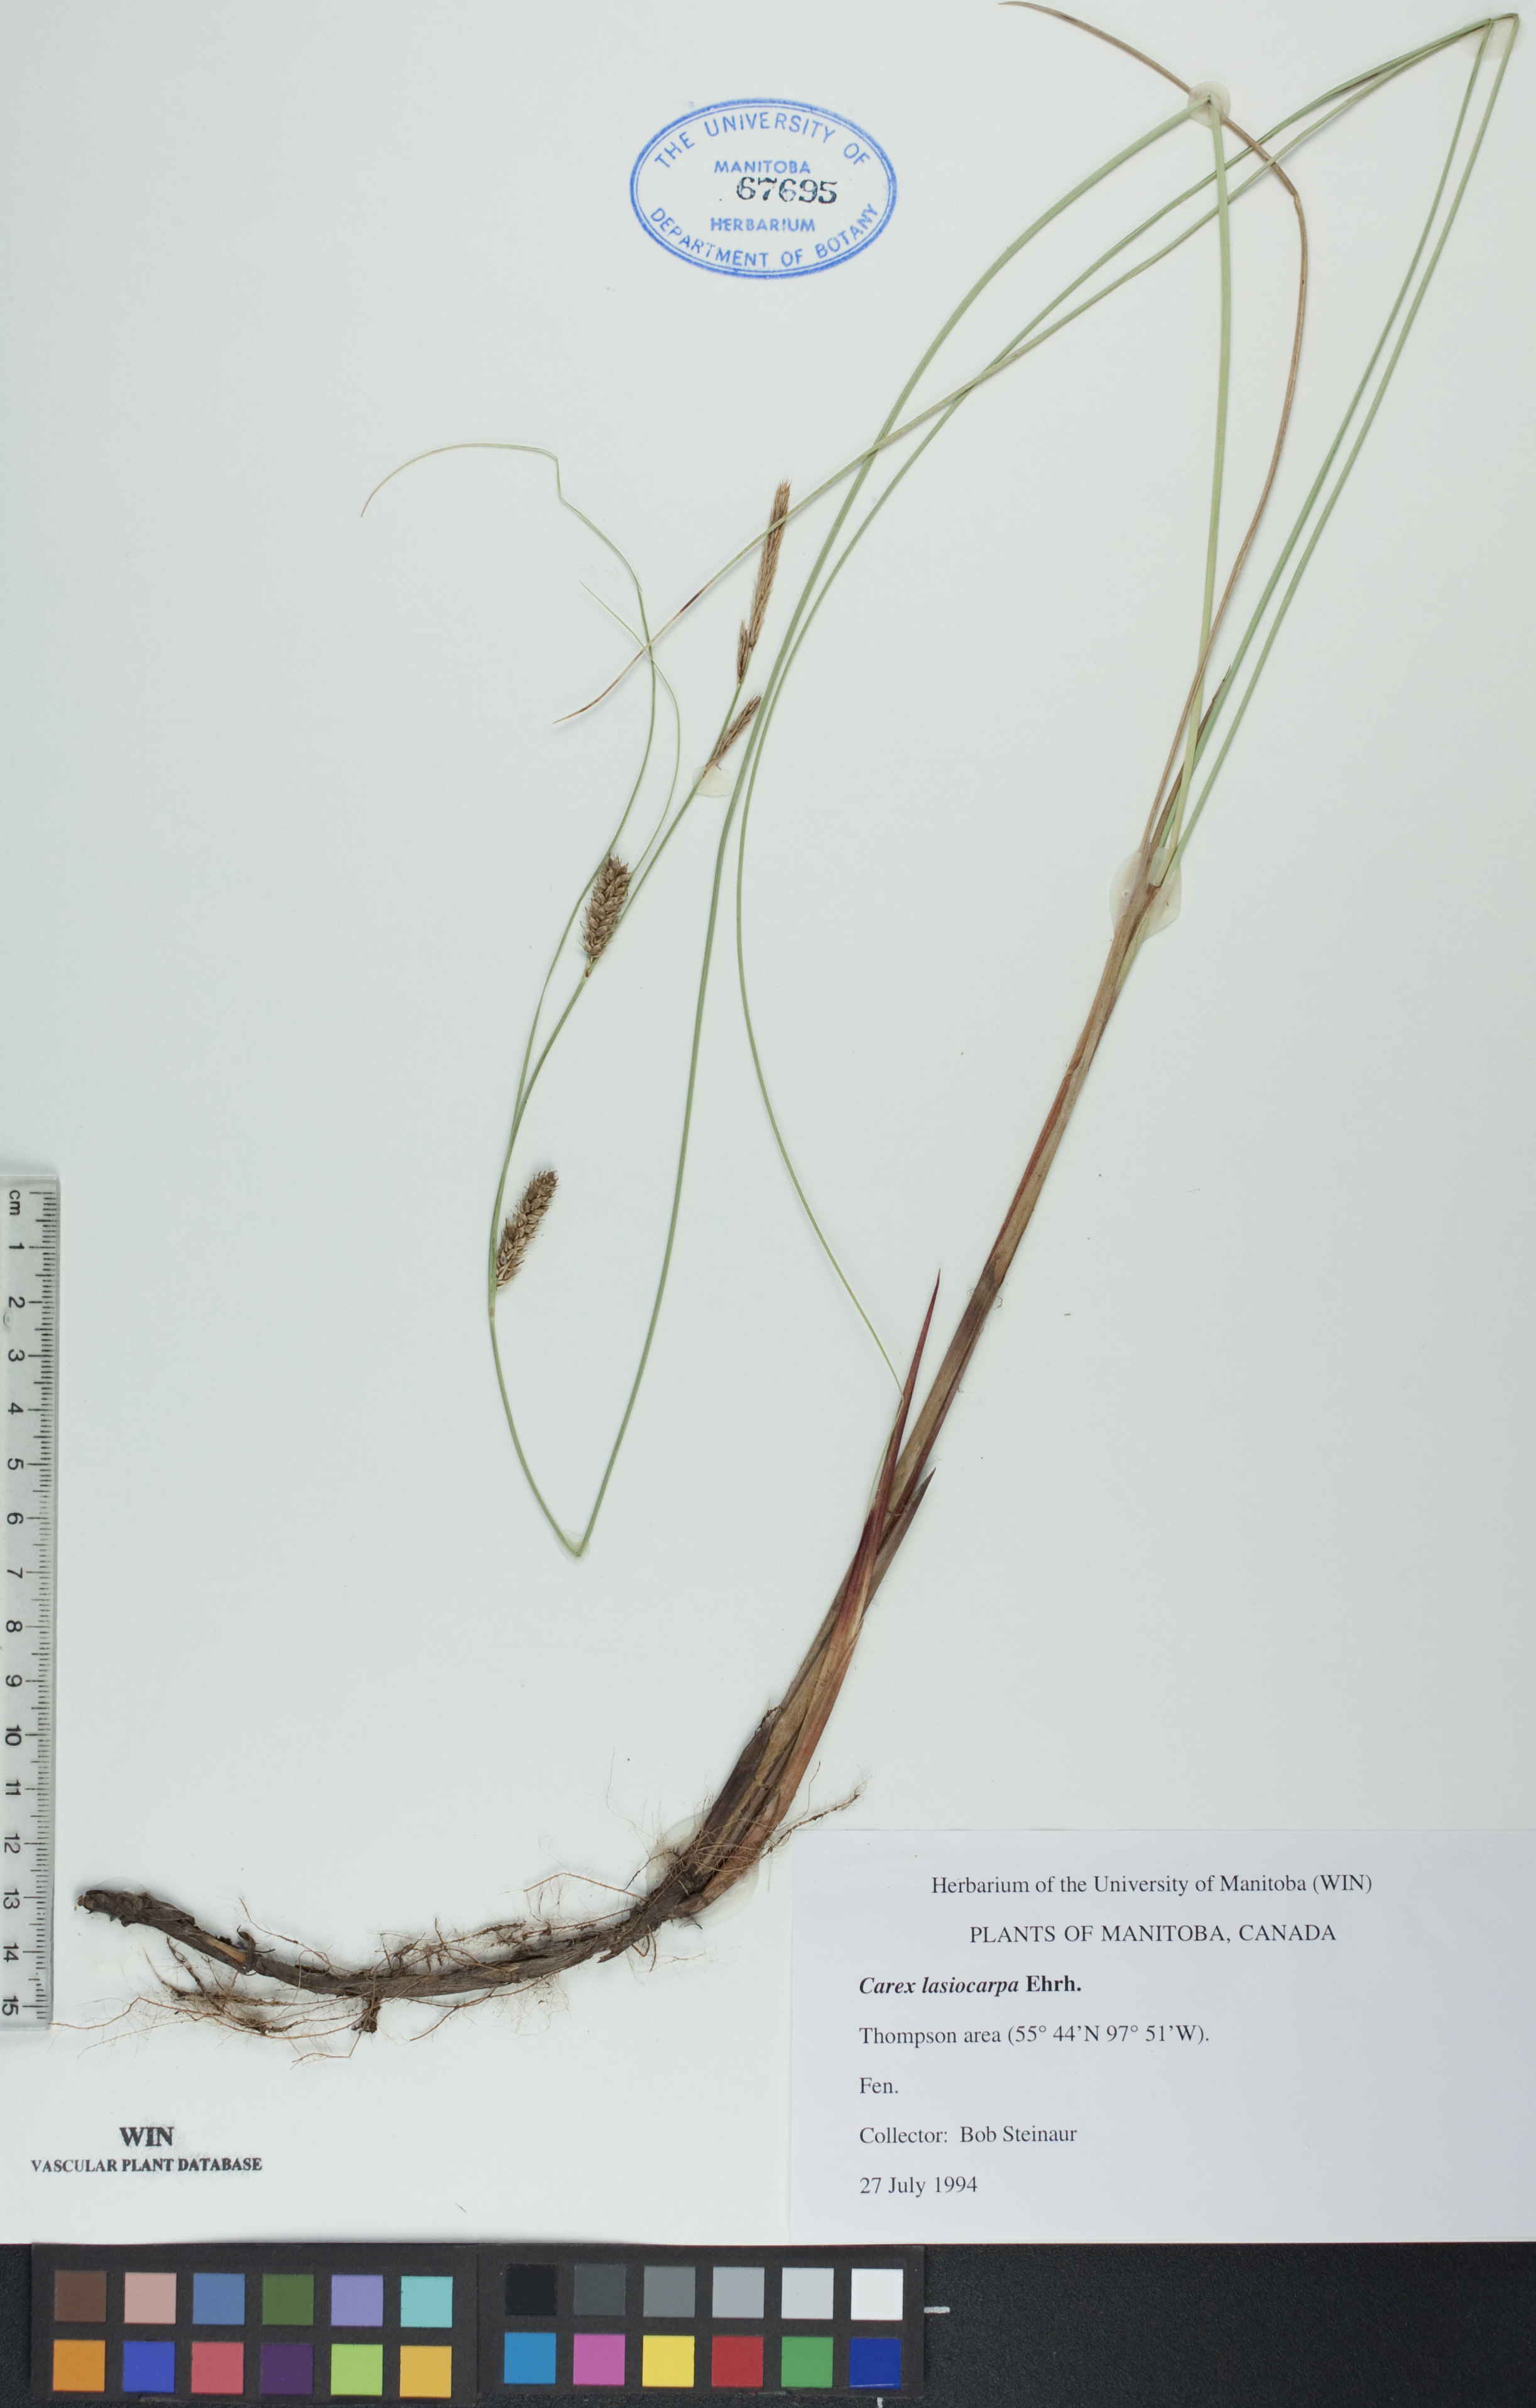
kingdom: Plantae
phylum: Tracheophyta
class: Liliopsida
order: Poales
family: Cyperaceae
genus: Carex
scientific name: Carex lasiocarpa
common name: Slender sedge
